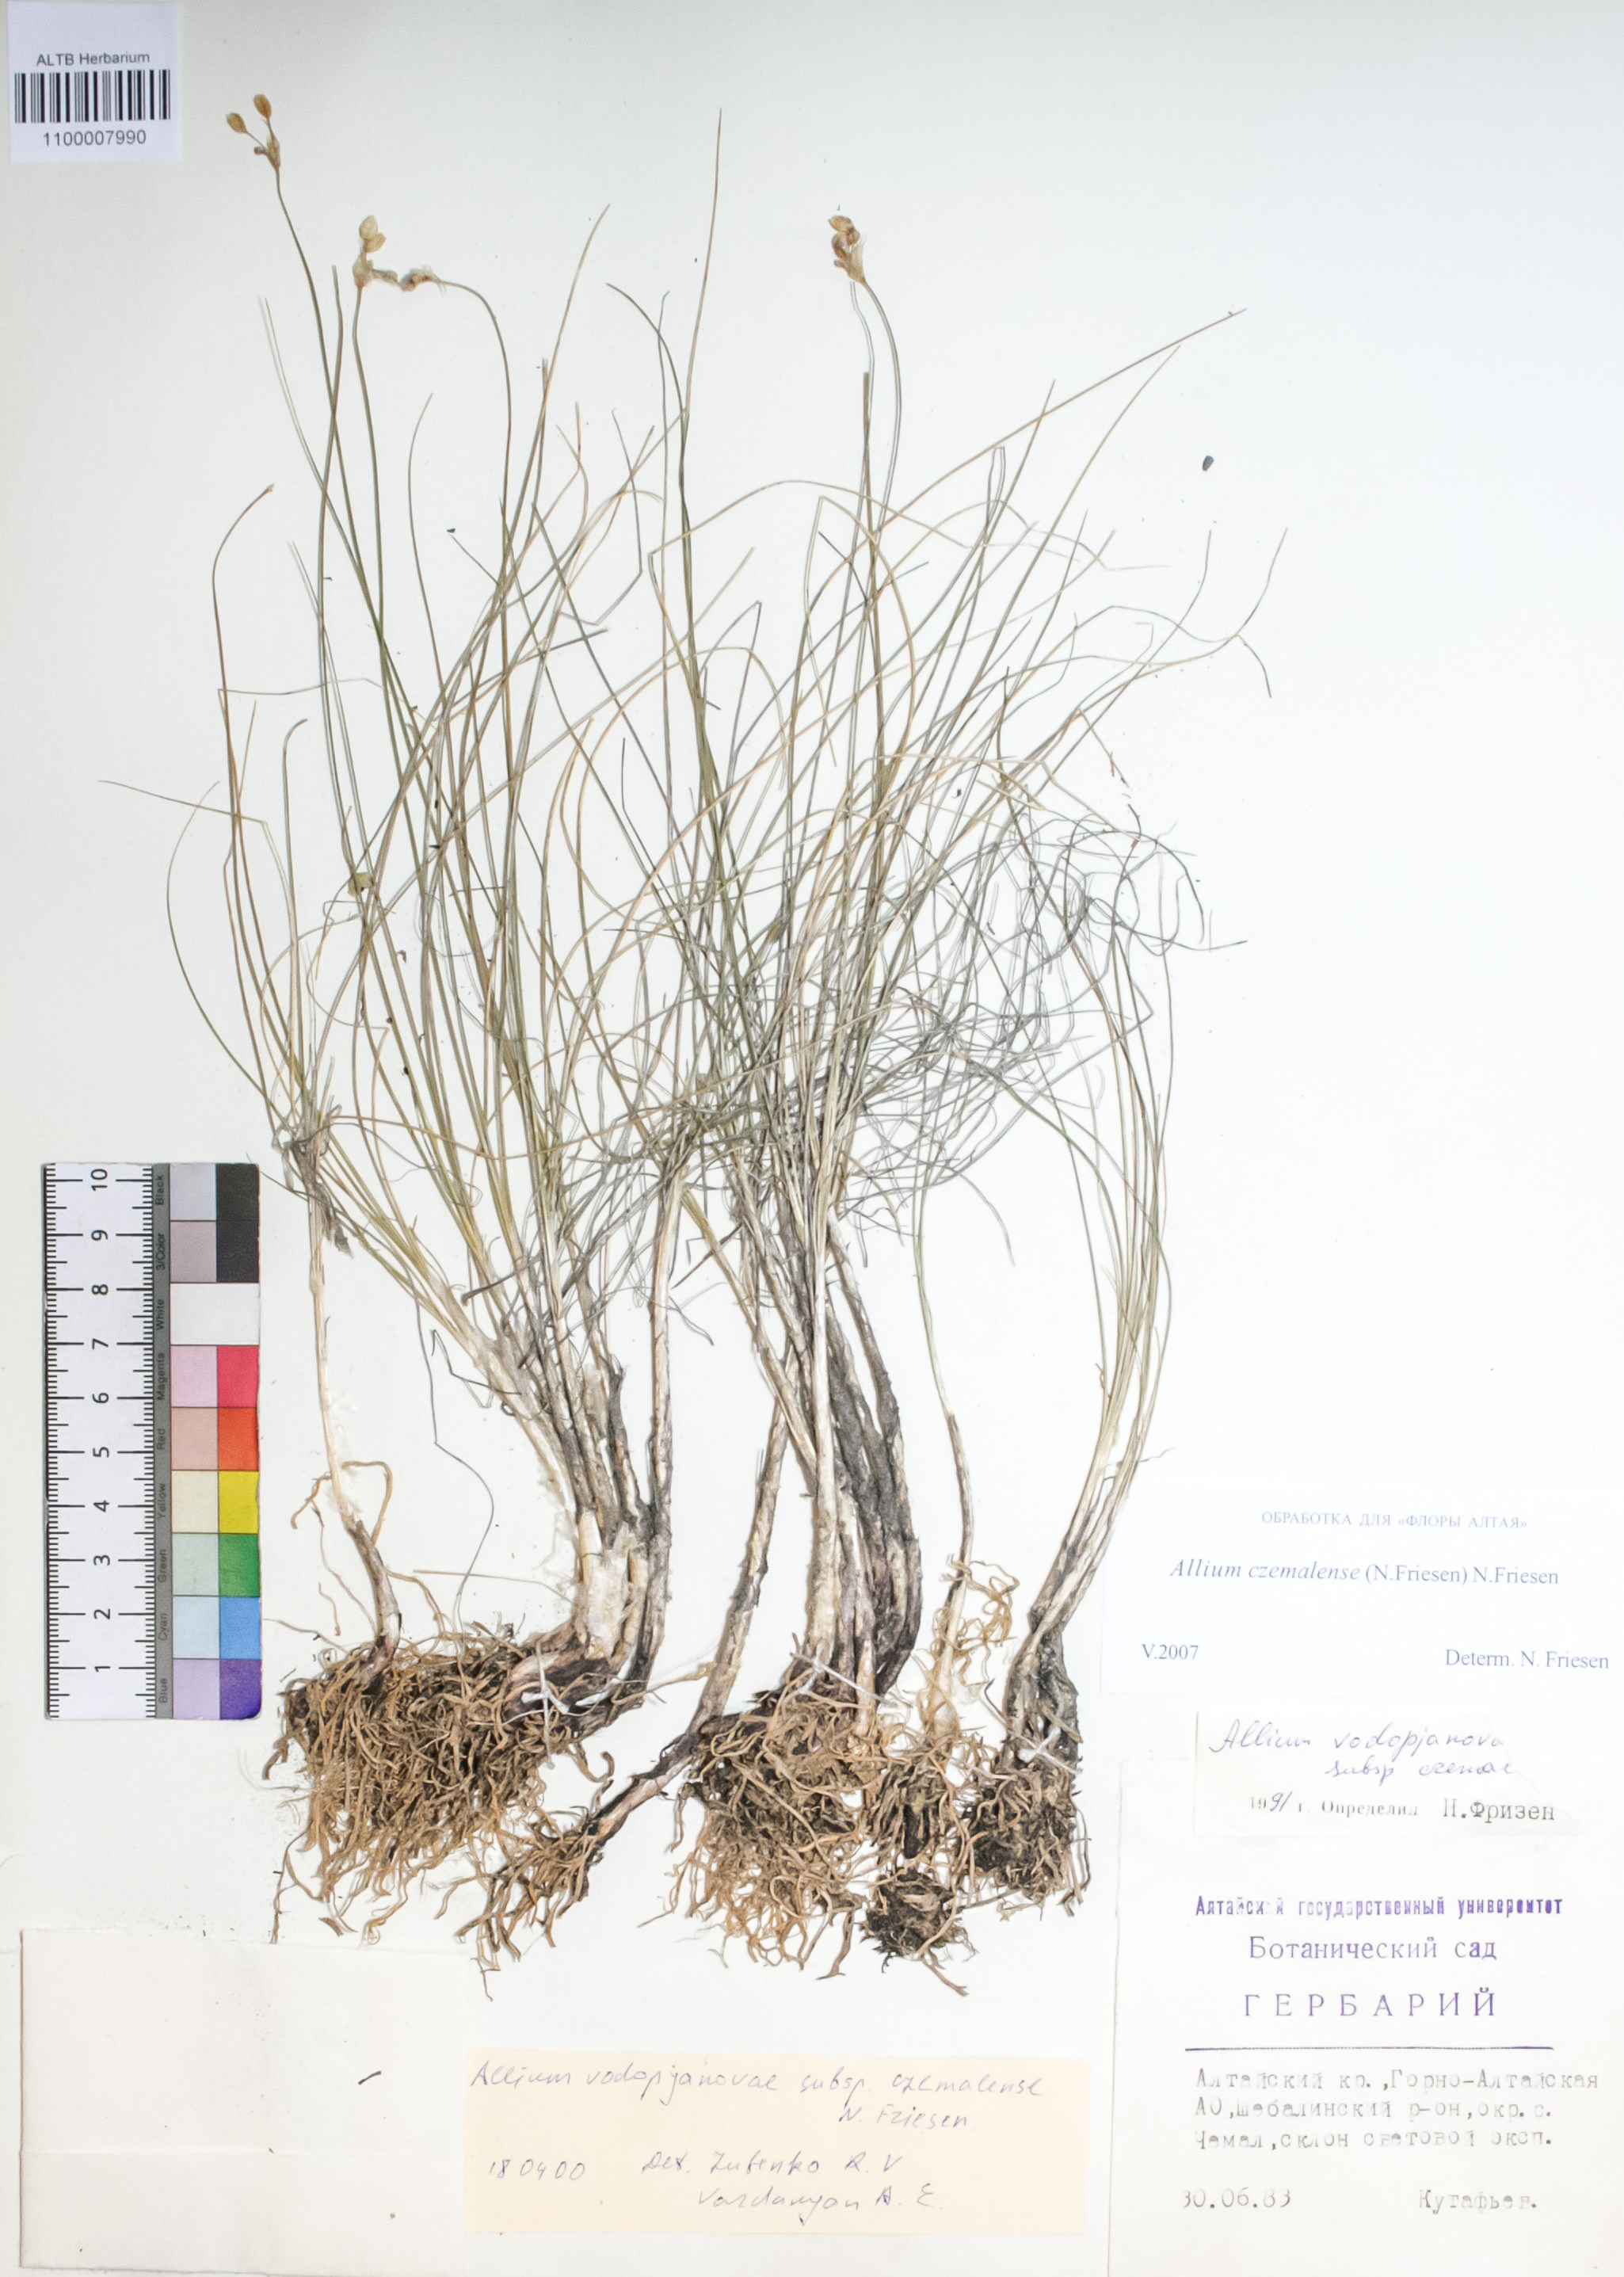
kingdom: Plantae
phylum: Tracheophyta
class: Liliopsida
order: Asparagales
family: Amaryllidaceae
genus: Allium
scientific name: Allium vodopjanovae
